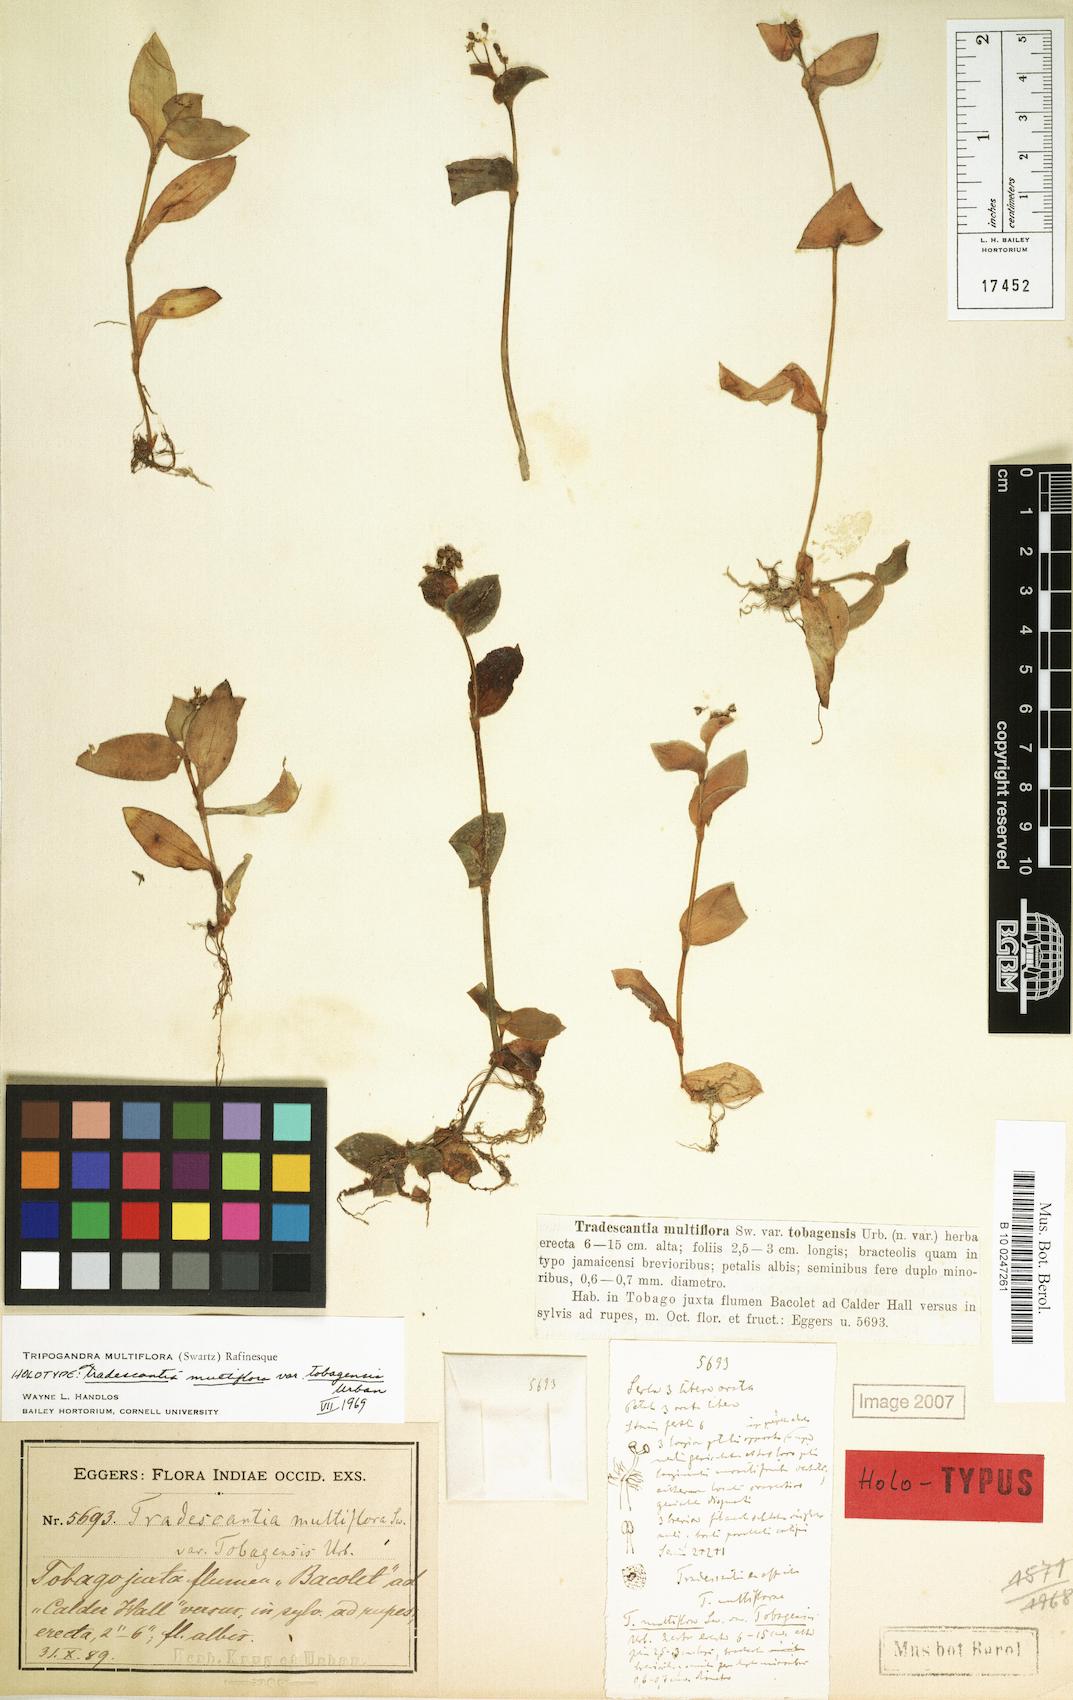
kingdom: Plantae
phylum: Tracheophyta
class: Liliopsida
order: Commelinales
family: Commelinaceae
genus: Callisia
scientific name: Callisia procumbens
